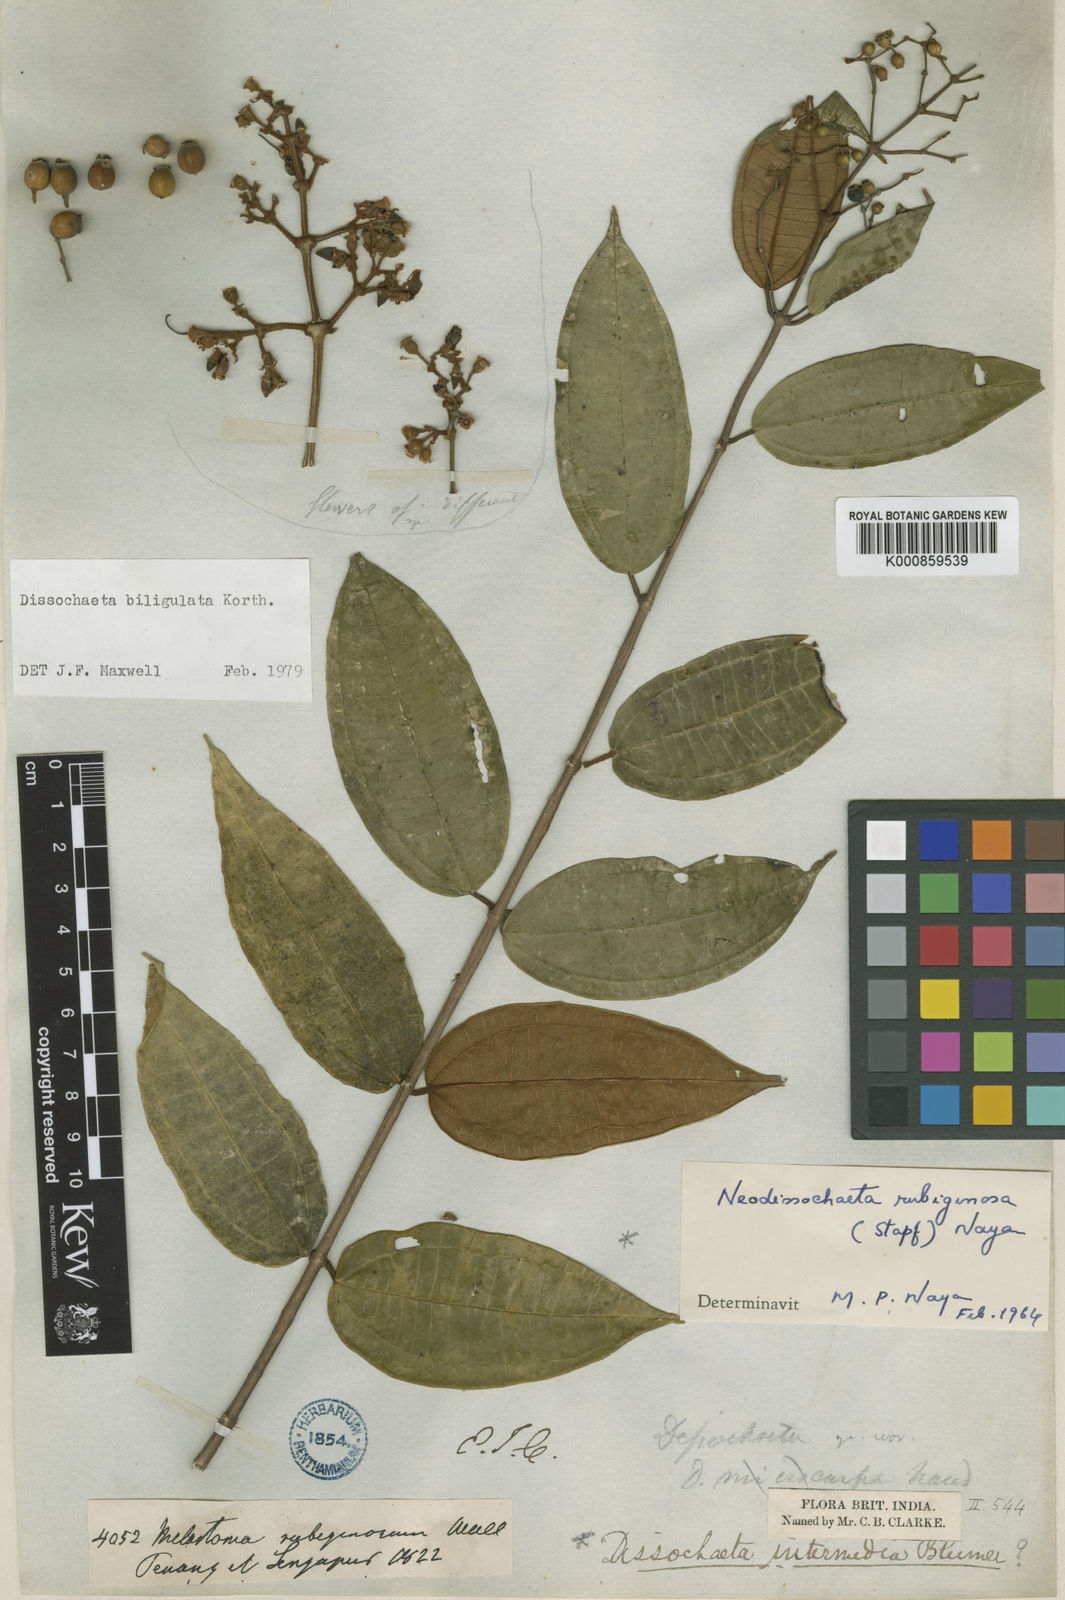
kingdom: Plantae
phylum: Tracheophyta
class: Magnoliopsida
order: Myrtales
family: Melastomataceae
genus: Dissochaeta
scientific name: Dissochaeta biligulata
